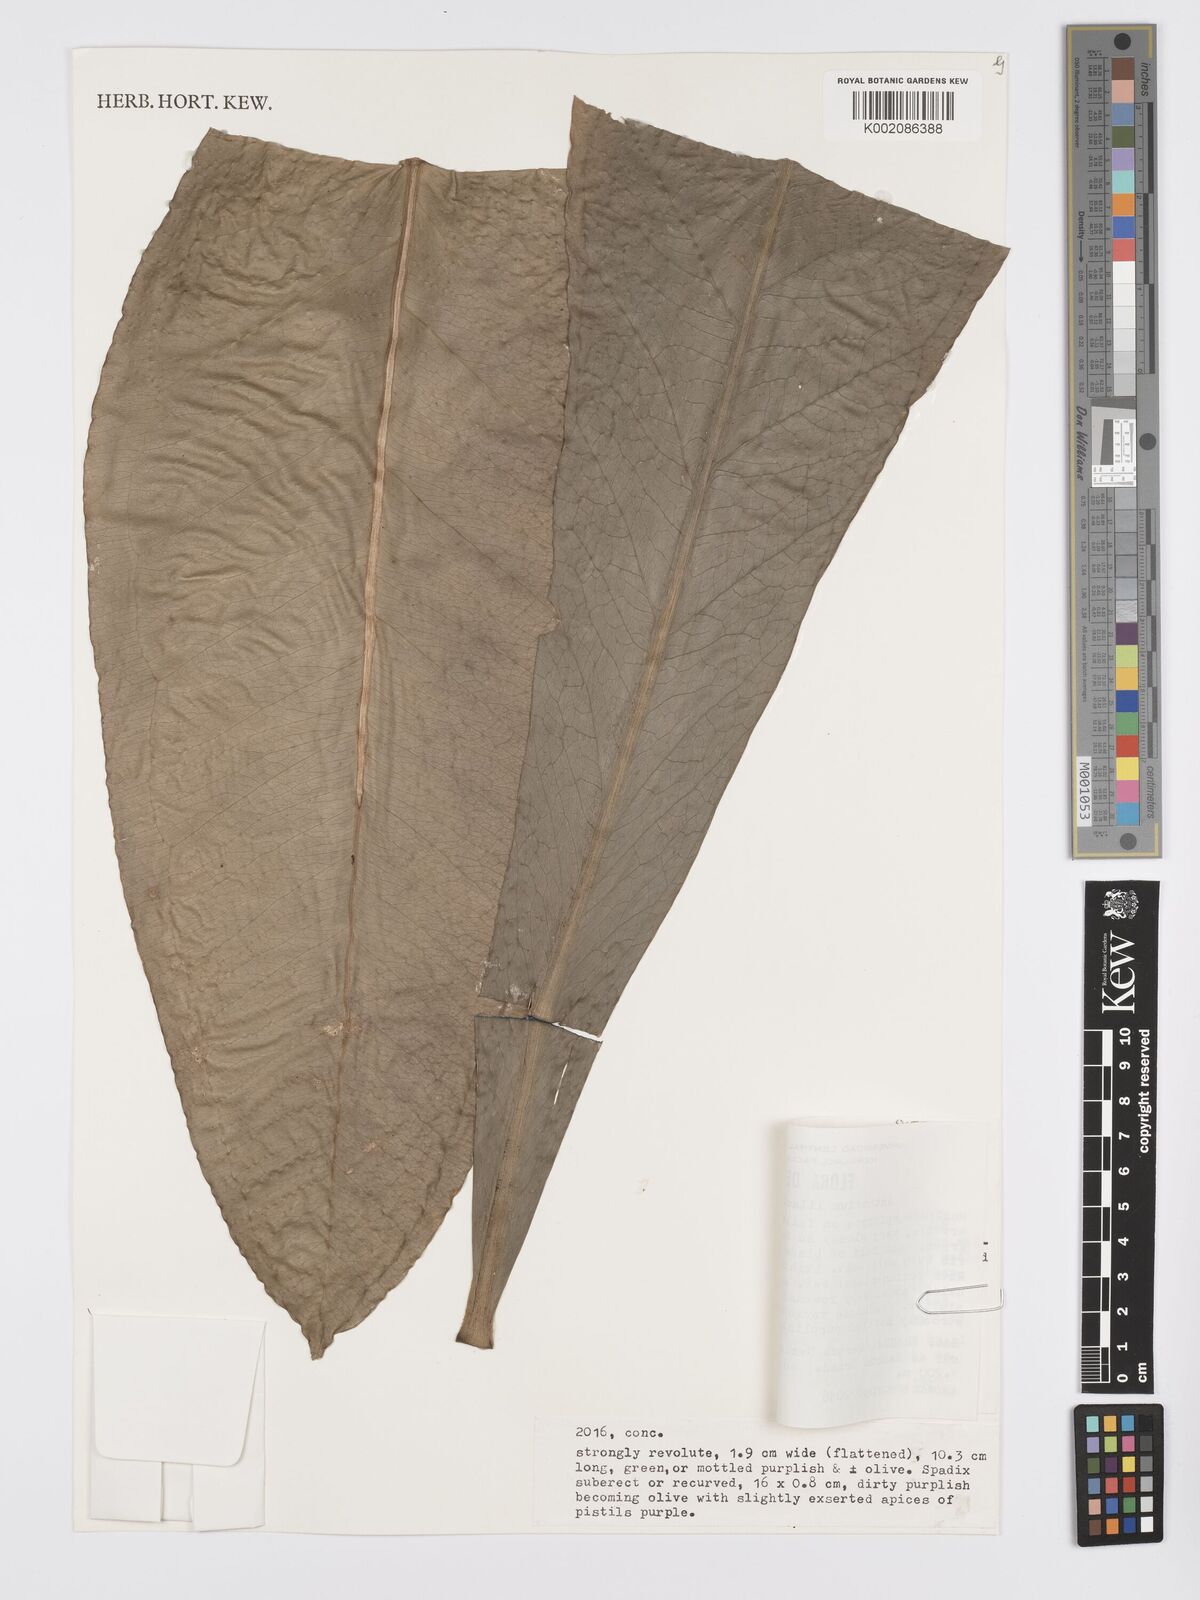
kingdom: Plantae
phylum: Tracheophyta
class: Liliopsida
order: Alismatales
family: Araceae
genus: Anthurium
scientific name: Anthurium lilacinum
